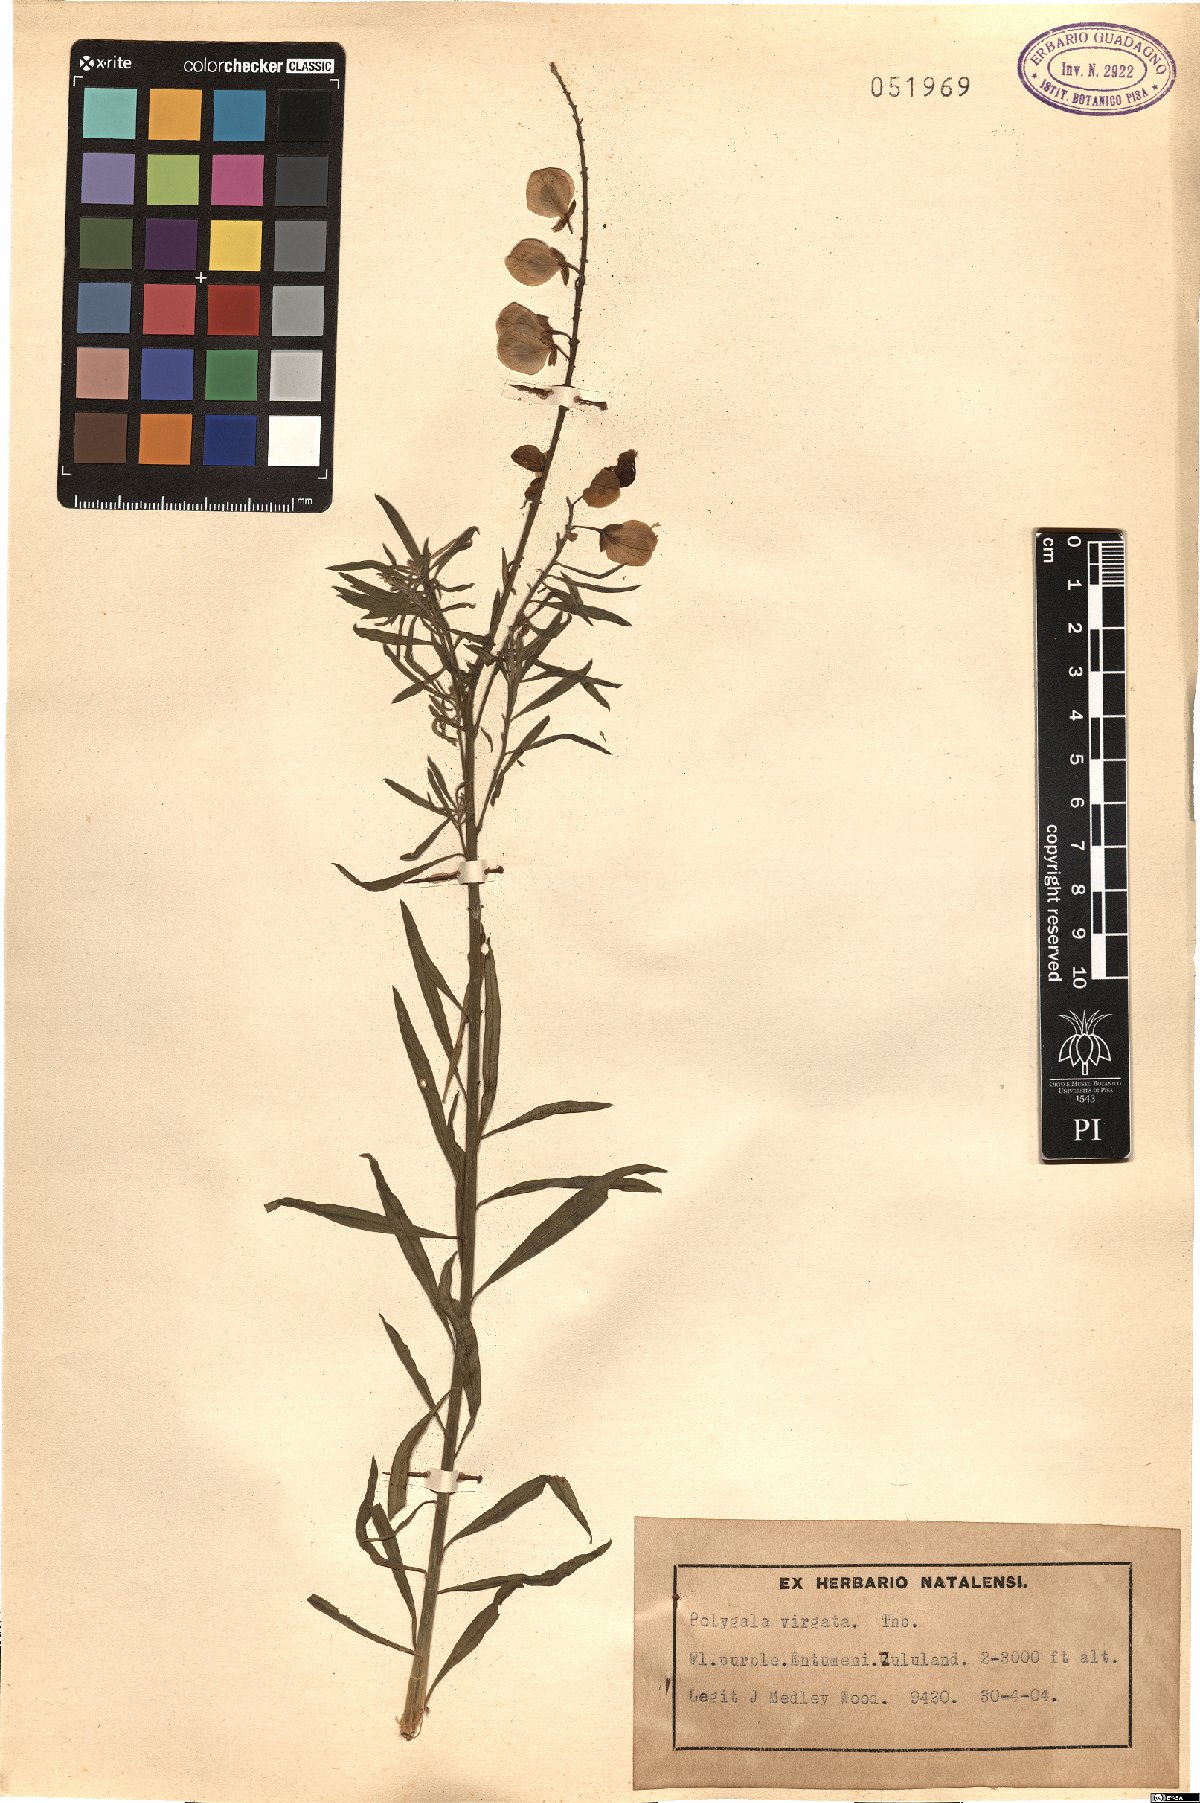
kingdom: Plantae
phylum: Tracheophyta
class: Magnoliopsida
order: Fabales
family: Polygalaceae
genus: Polygala
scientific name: Polygala virgata
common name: Milkwort
